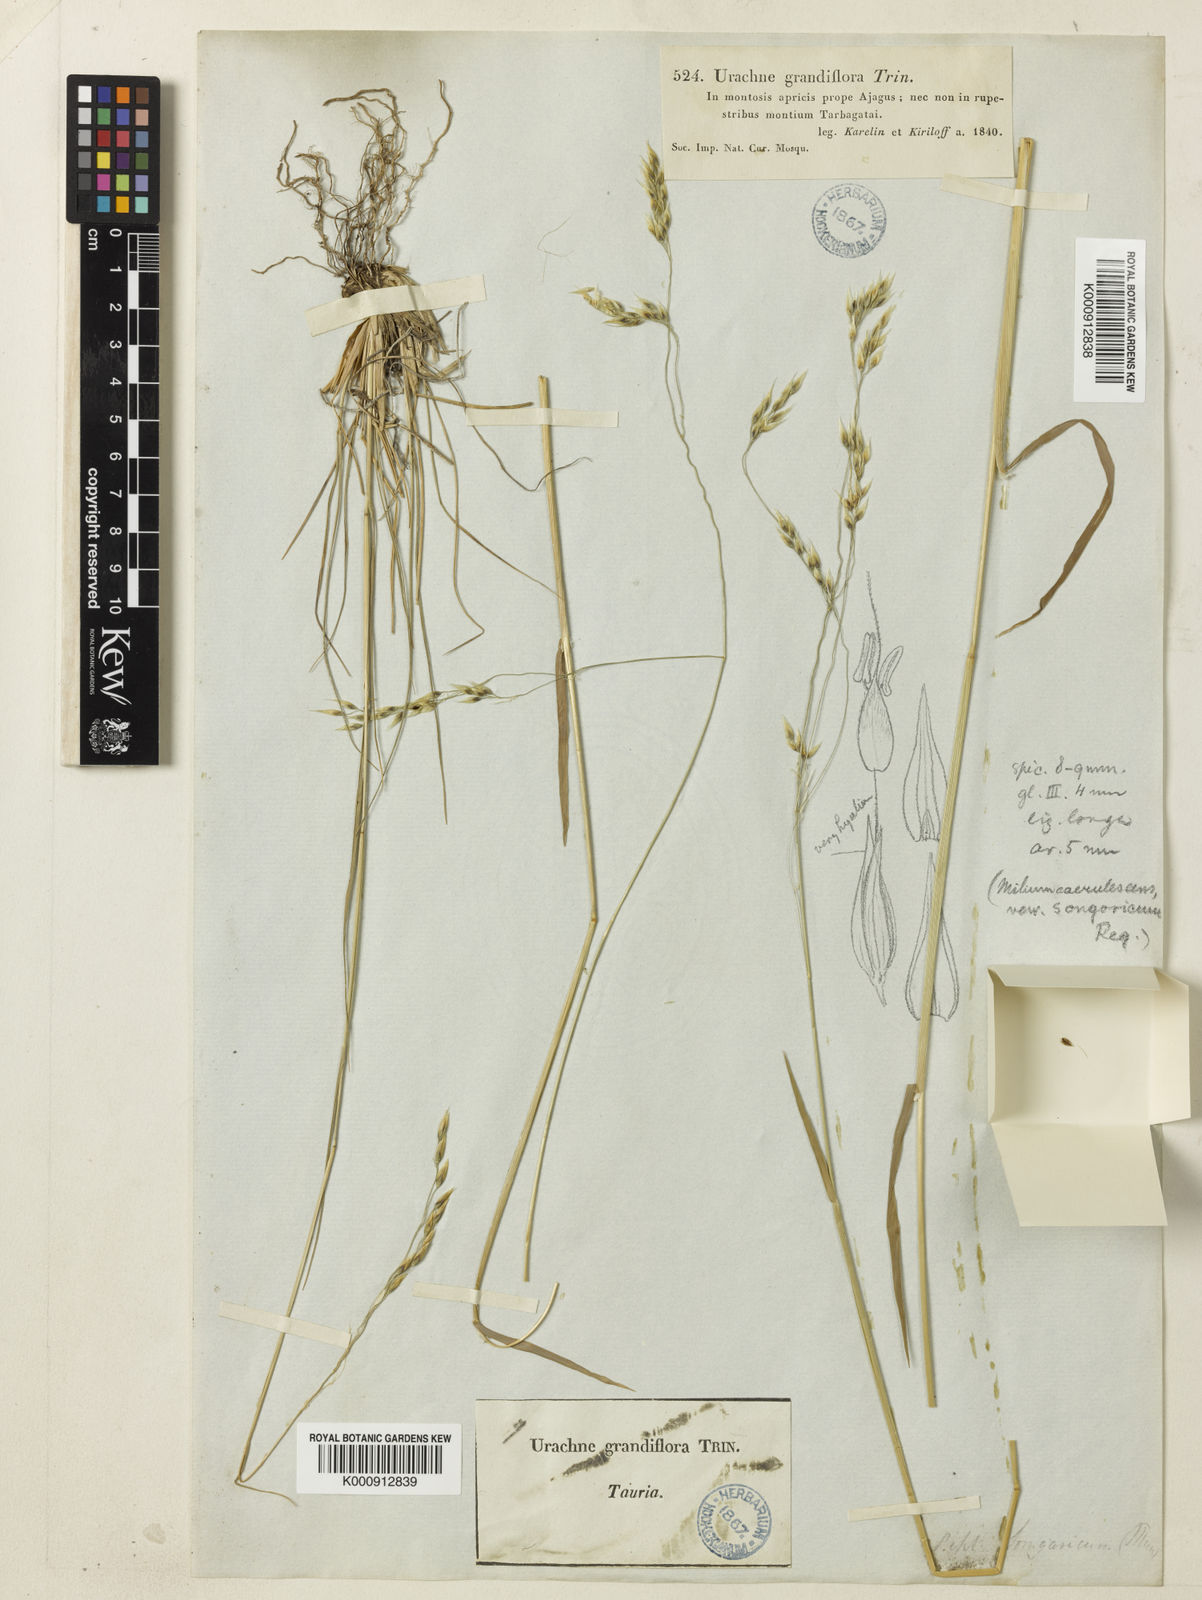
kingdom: Plantae
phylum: Tracheophyta
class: Liliopsida
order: Poales
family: Poaceae
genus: Piptatherum
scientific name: Piptatherum songaricum
